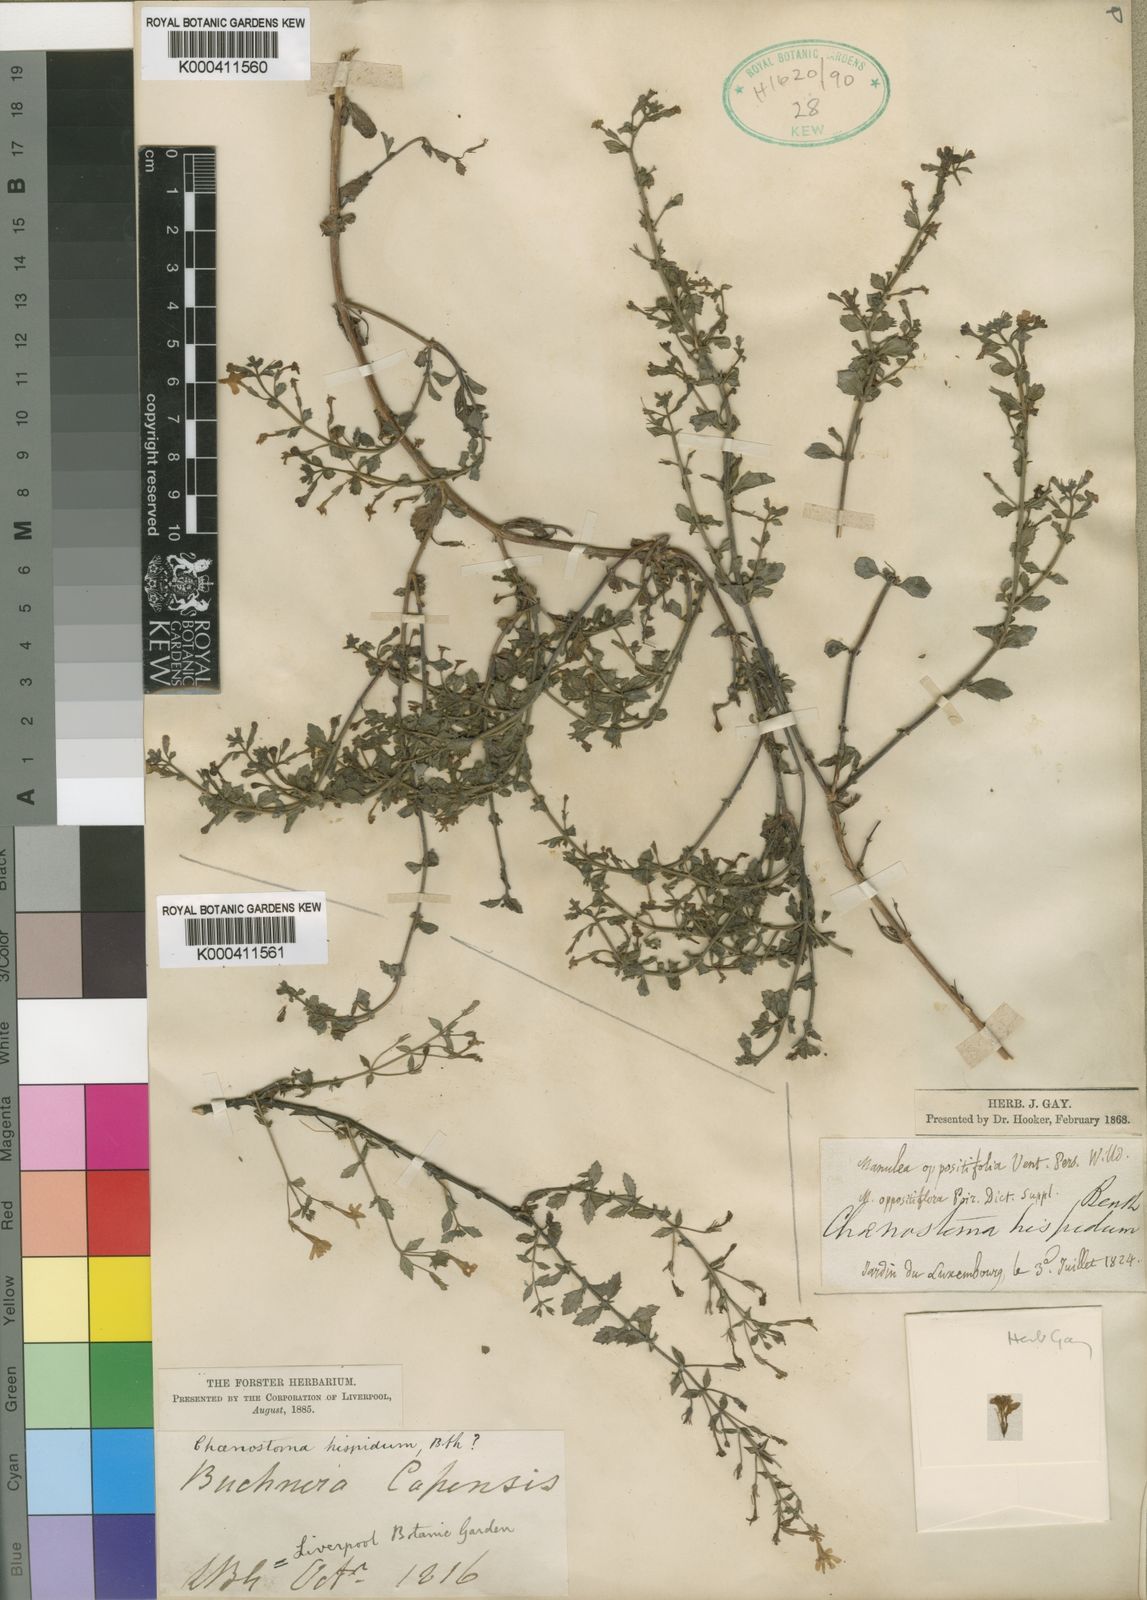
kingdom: Plantae
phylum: Tracheophyta
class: Magnoliopsida
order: Lamiales
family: Scrophulariaceae
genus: Chaenostoma
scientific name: Chaenostoma hispidum
